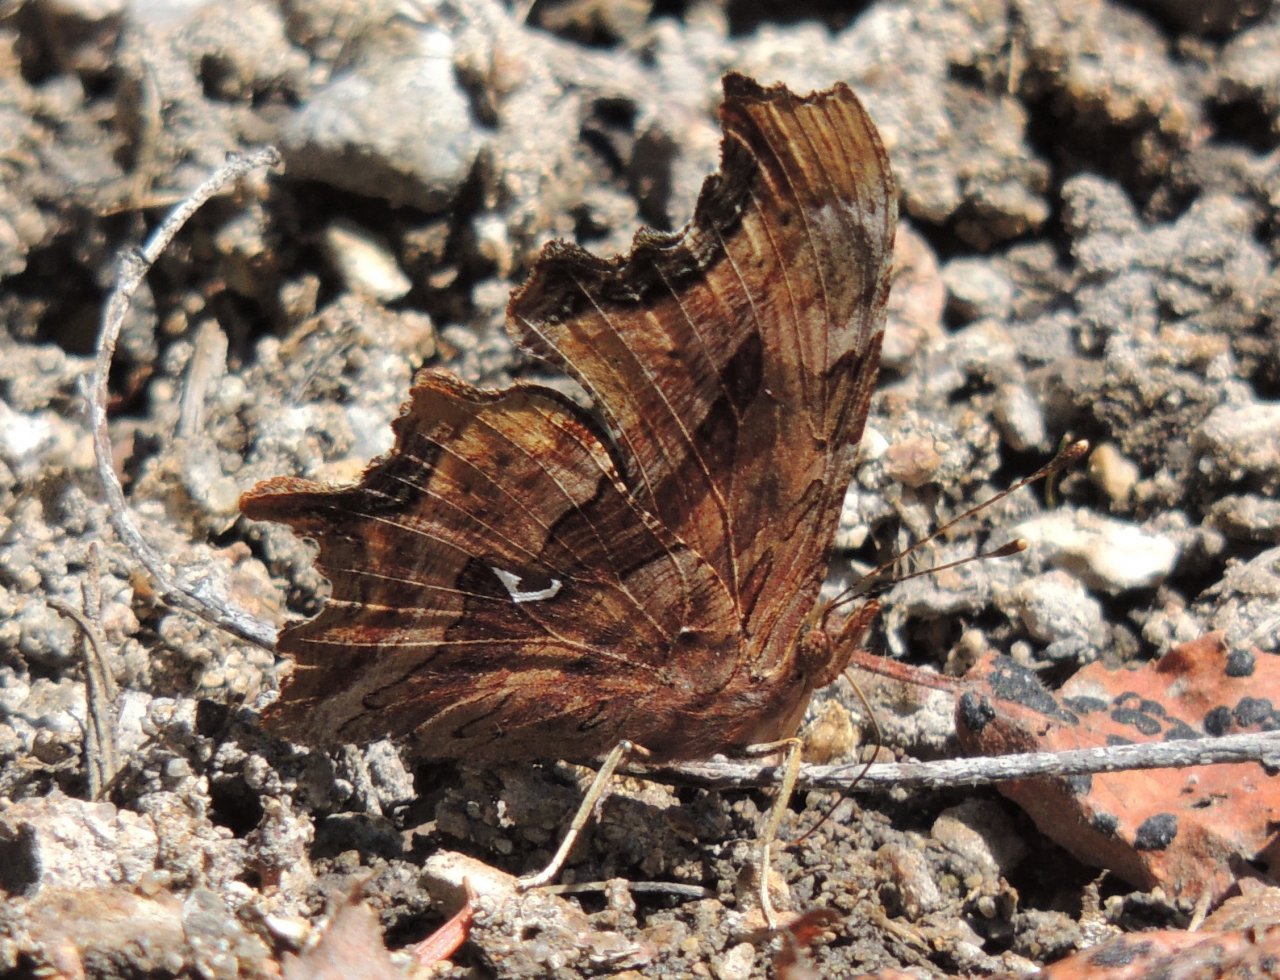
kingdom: Animalia
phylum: Arthropoda
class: Insecta
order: Lepidoptera
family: Nymphalidae
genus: Polygonia
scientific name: Polygonia satyrus
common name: Satyr Comma
